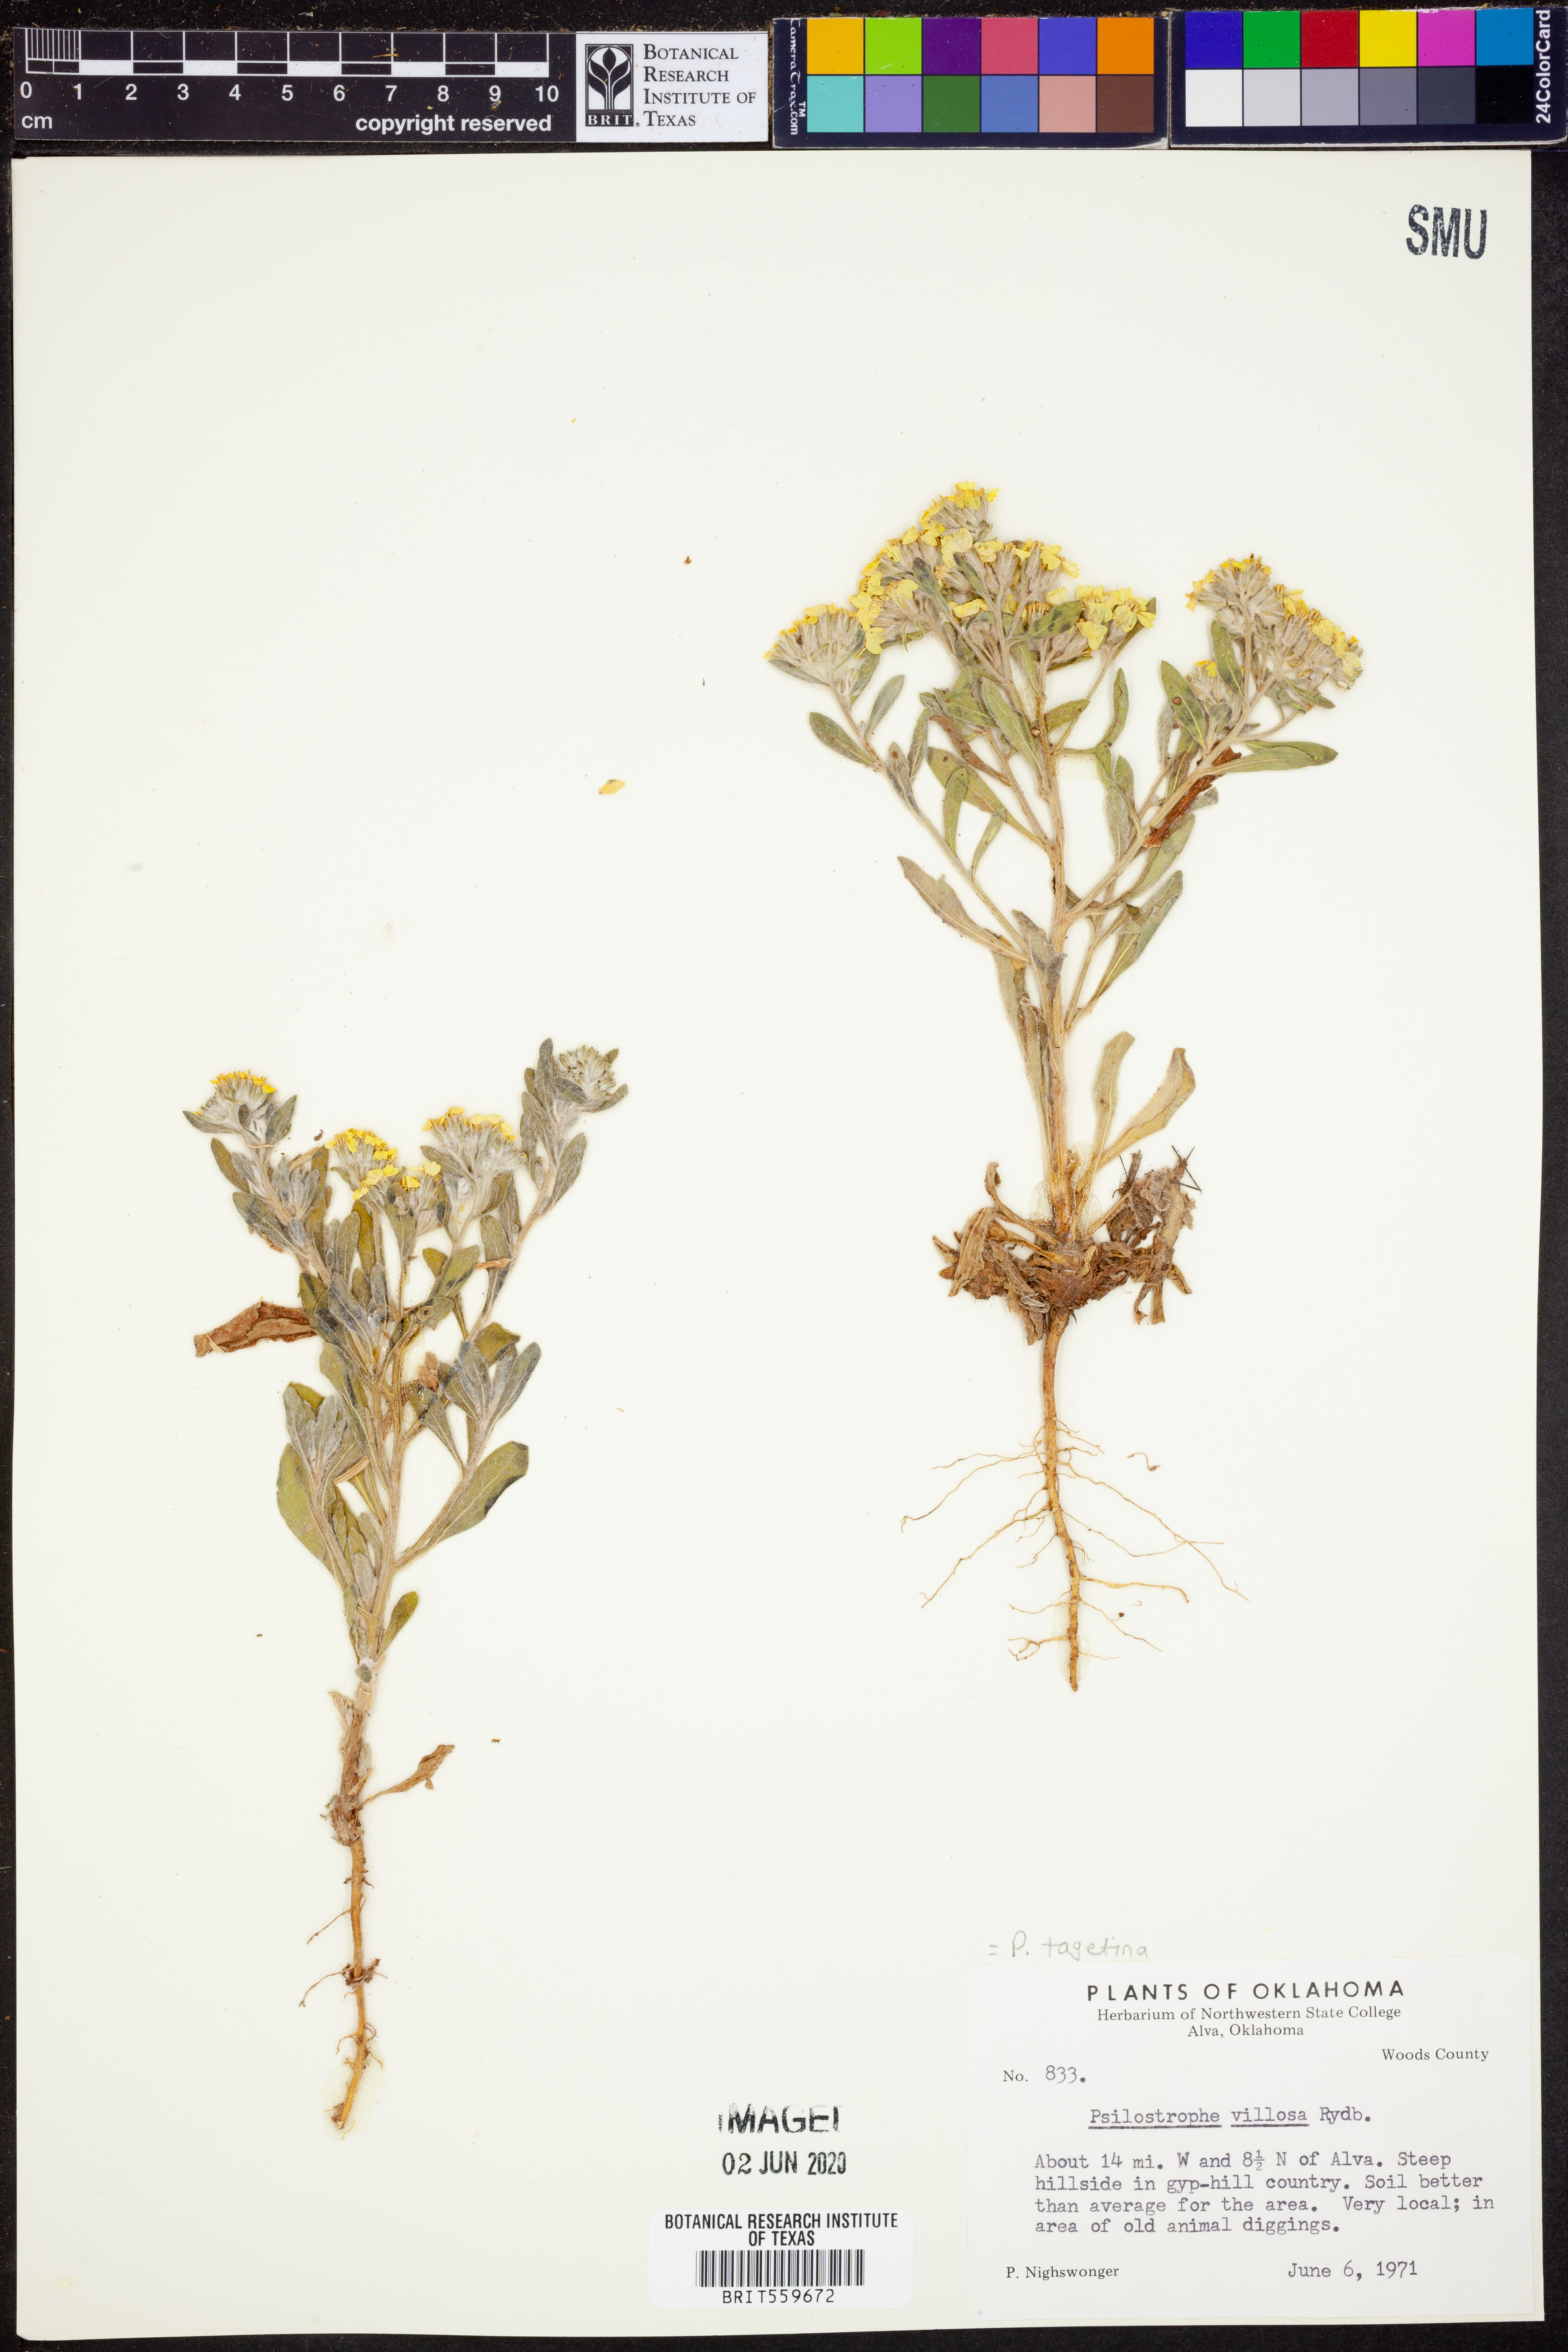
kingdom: Plantae
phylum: Tracheophyta
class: Magnoliopsida
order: Asterales
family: Asteraceae
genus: Psilostrophe
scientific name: Psilostrophe tagetina
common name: Marigold paper-flower
